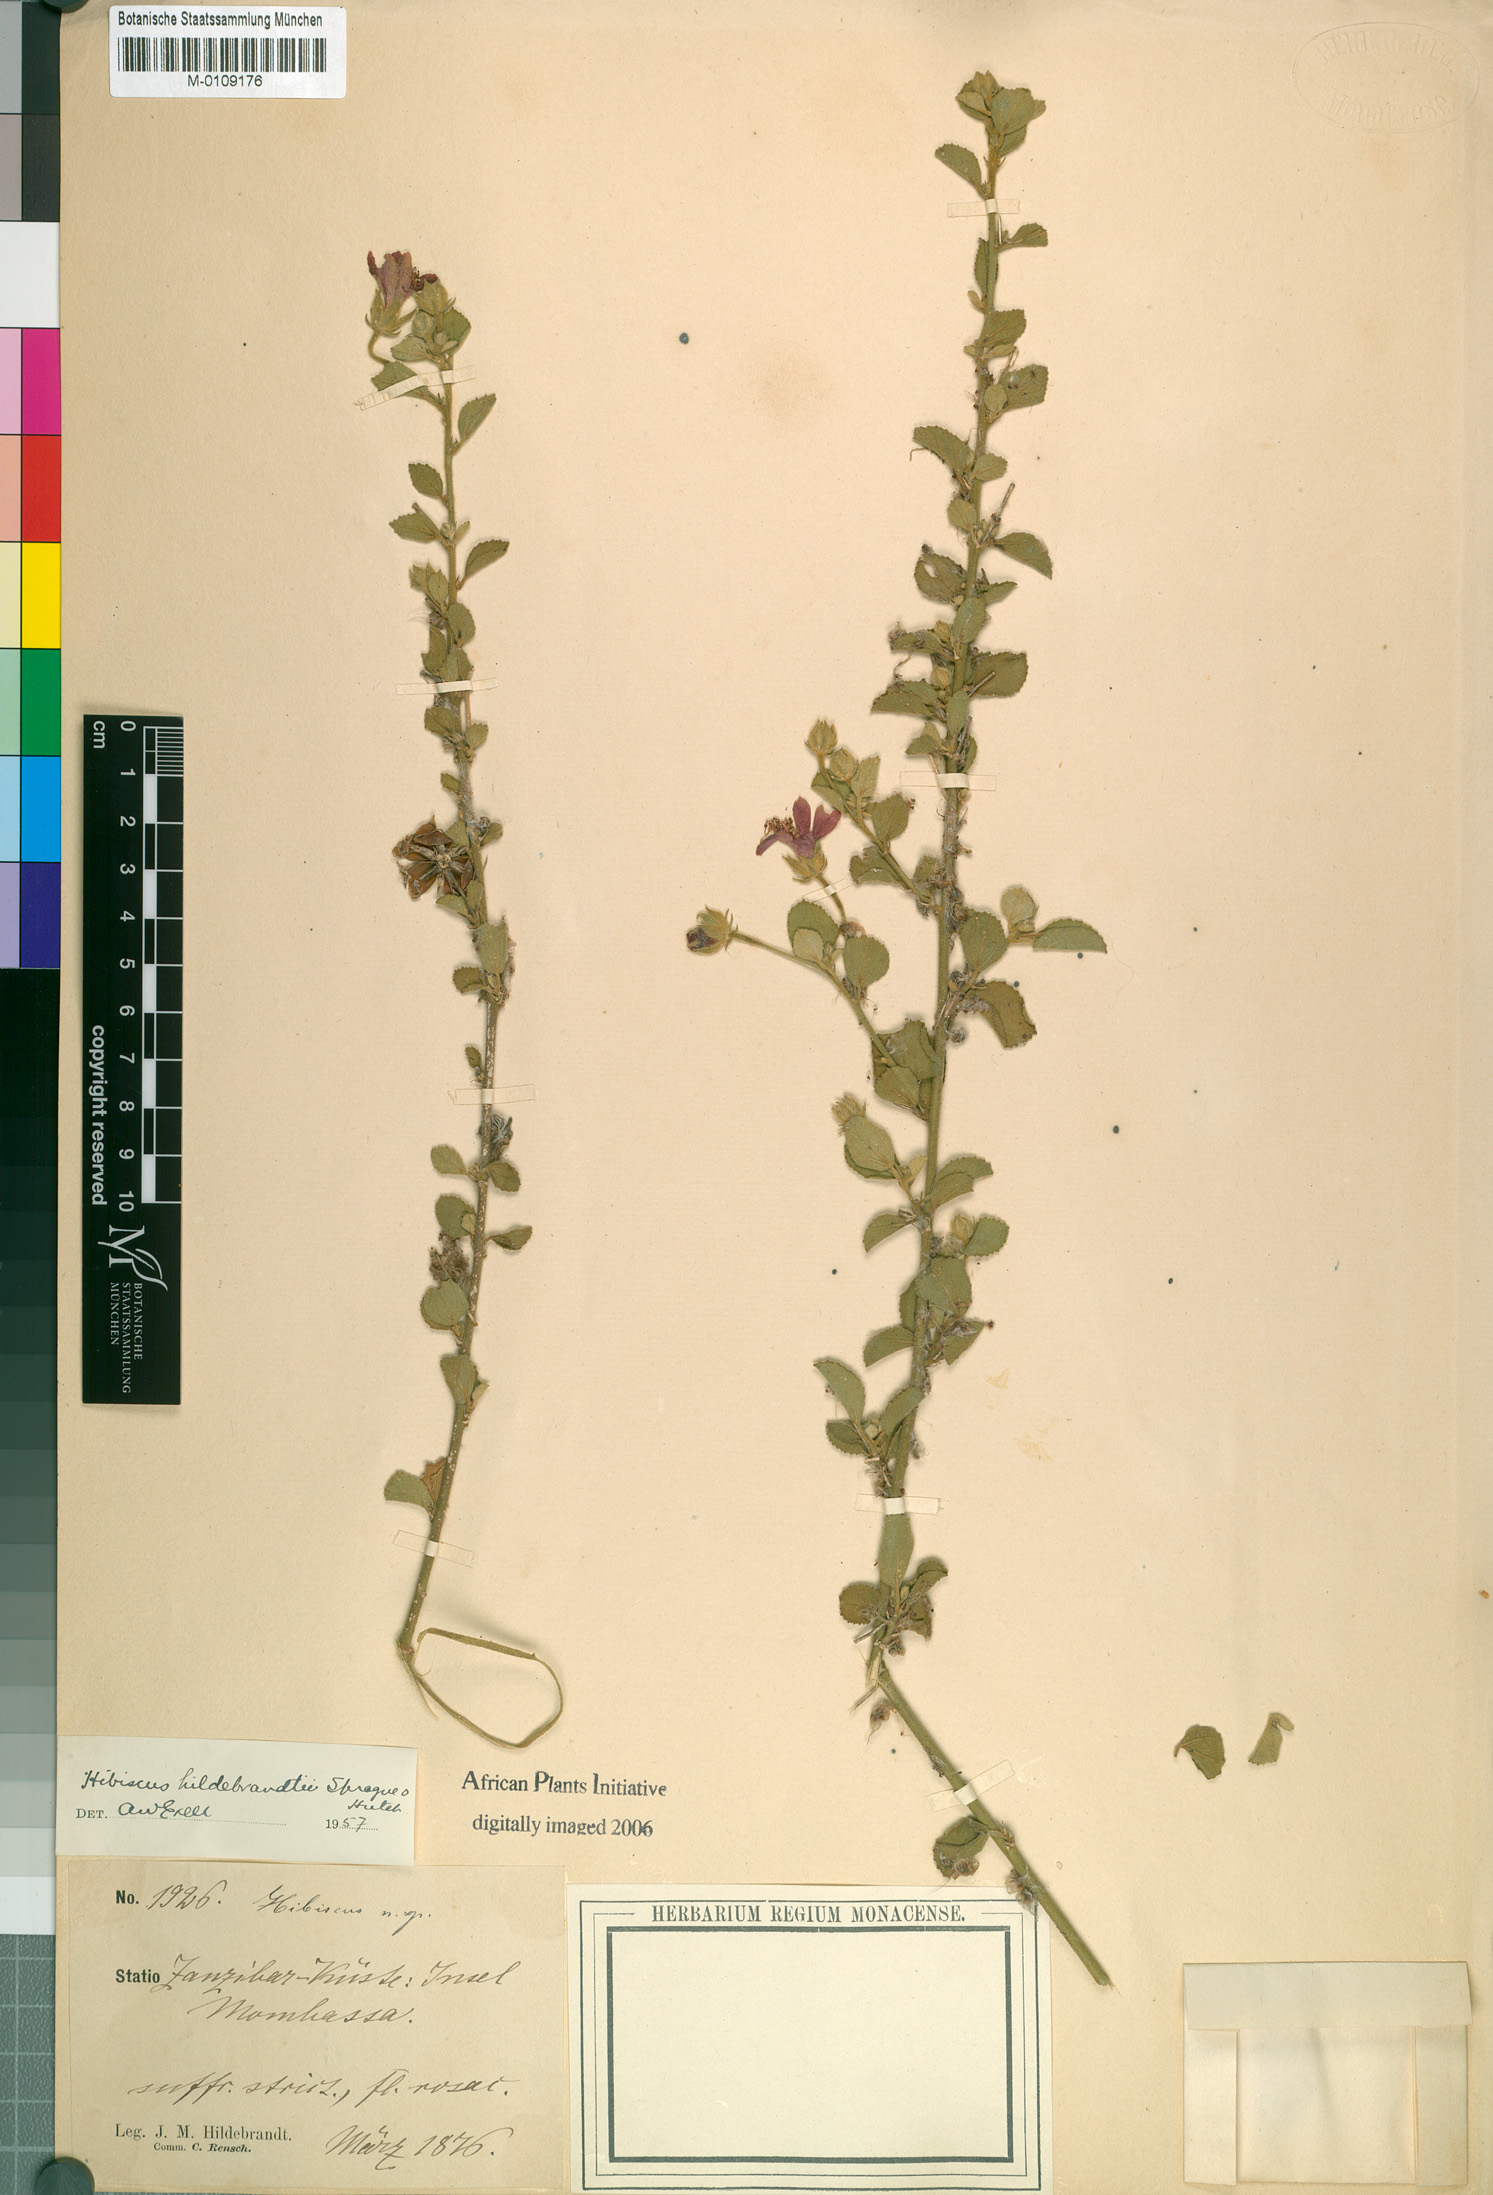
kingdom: Plantae
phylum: Tracheophyta
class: Magnoliopsida
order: Malvales
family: Malvaceae
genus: Hibiscus
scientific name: Hibiscus hildebrandtii
